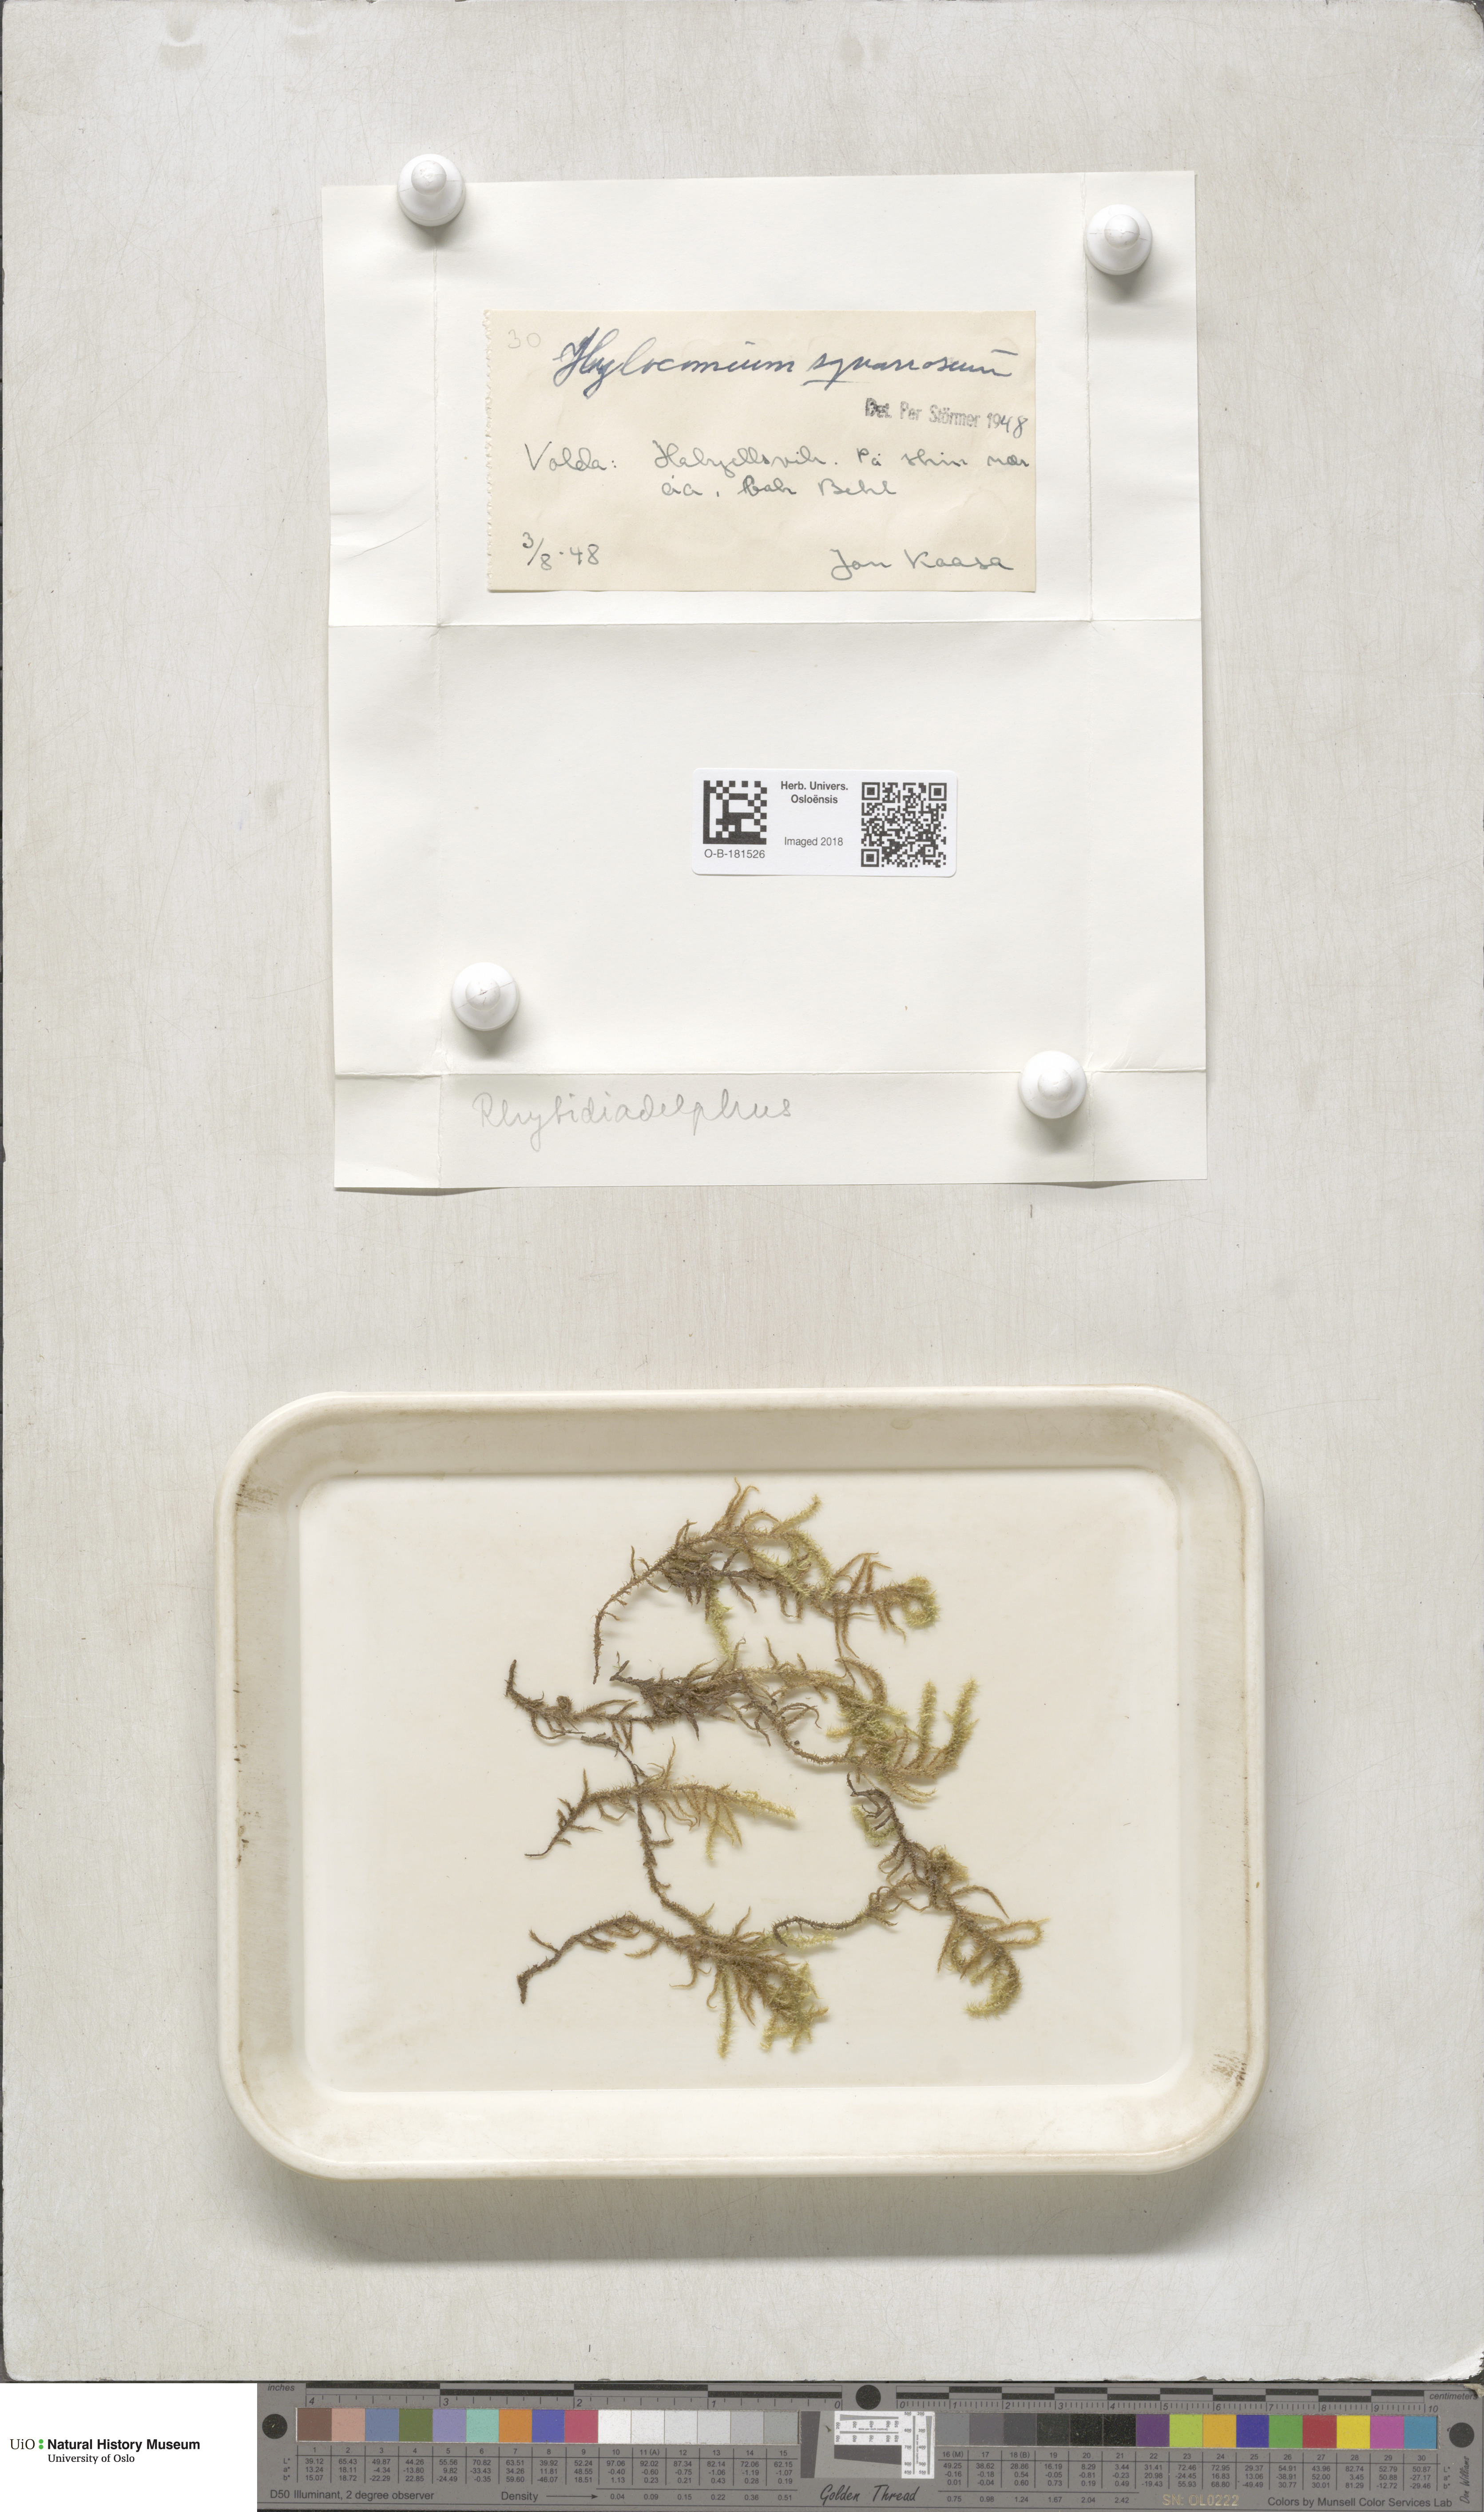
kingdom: Plantae
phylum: Bryophyta
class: Bryopsida
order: Hypnales
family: Hylocomiaceae
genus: Rhytidiadelphus
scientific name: Rhytidiadelphus squarrosus
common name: Springy turf-moss
